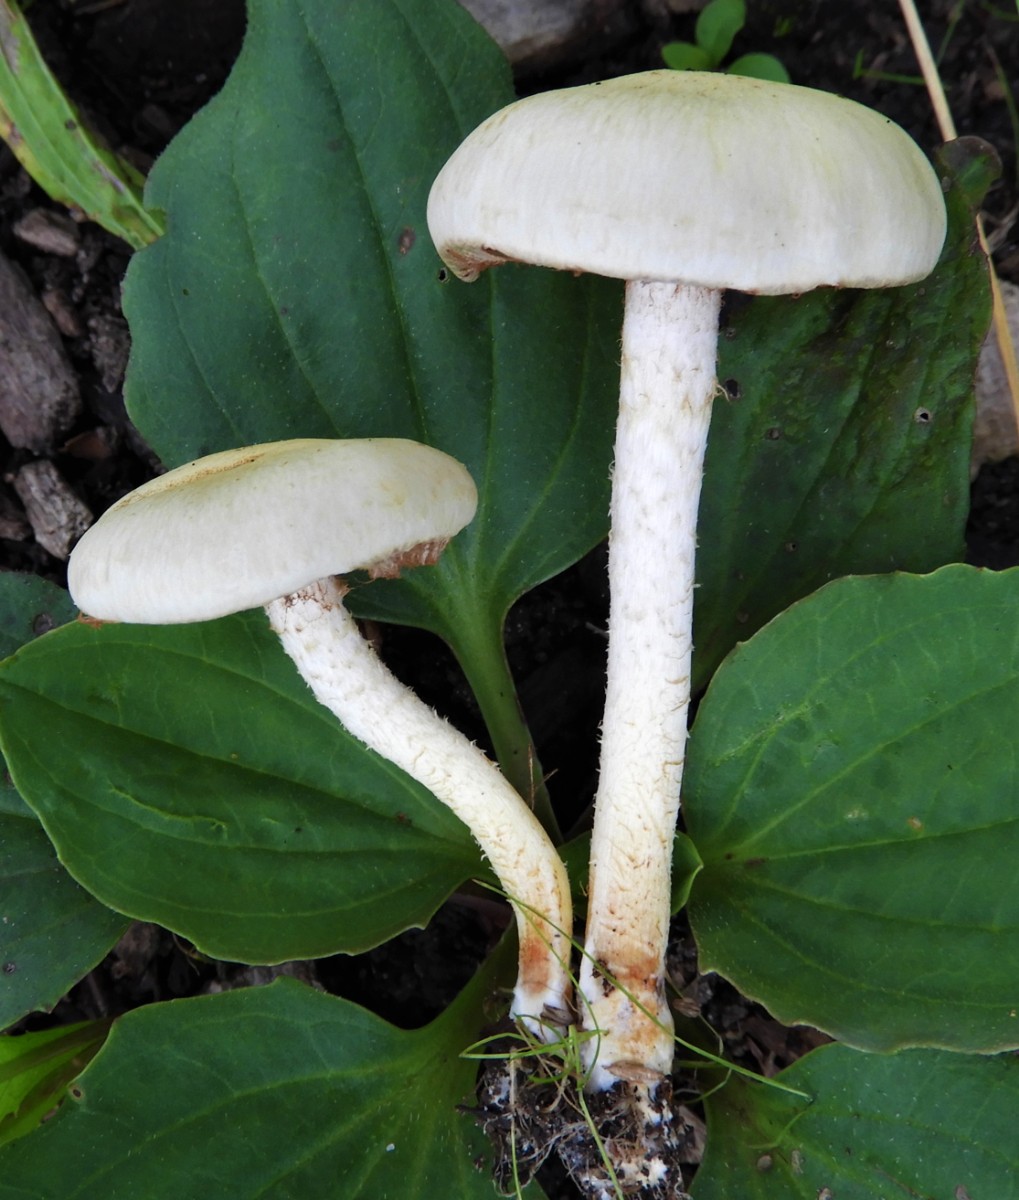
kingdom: Fungi
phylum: Basidiomycota
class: Agaricomycetes
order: Agaricales
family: Strophariaceae
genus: Pholiota
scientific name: Pholiota gummosa
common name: grøngul skælhat
